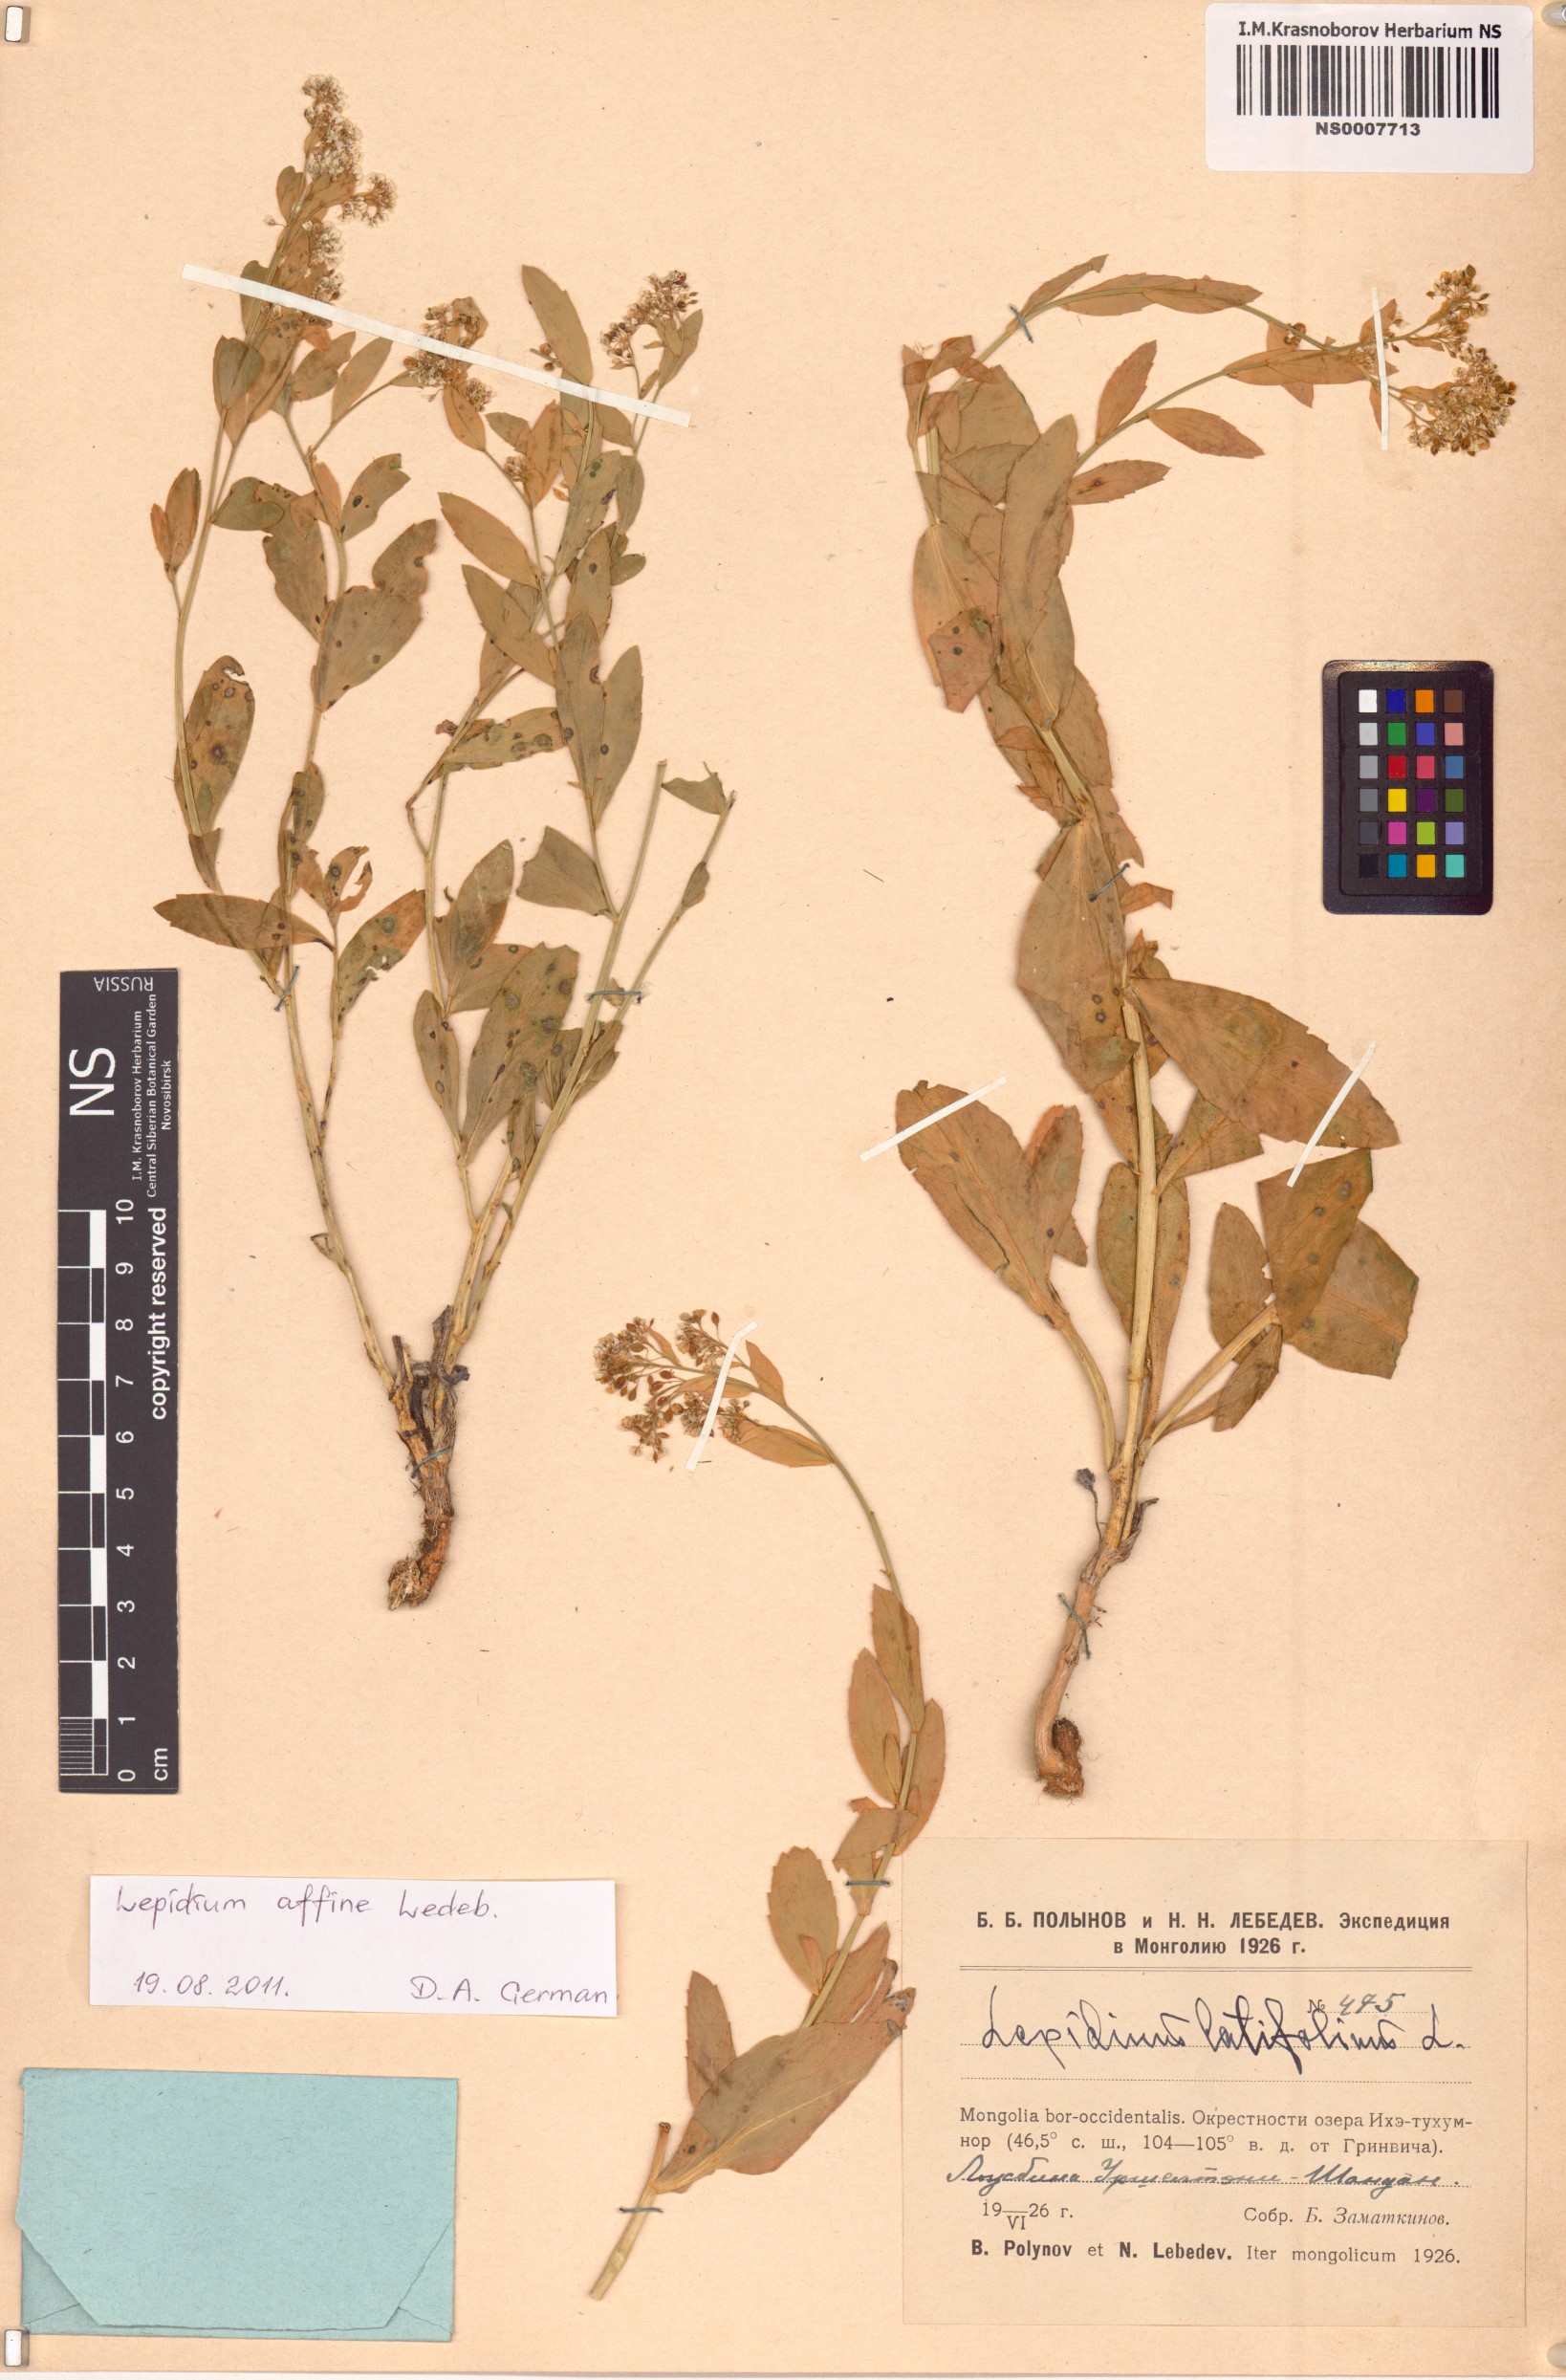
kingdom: Plantae
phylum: Tracheophyta
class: Magnoliopsida
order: Brassicales
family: Brassicaceae
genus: Lepidium
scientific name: Lepidium latifolium
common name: Dittander
